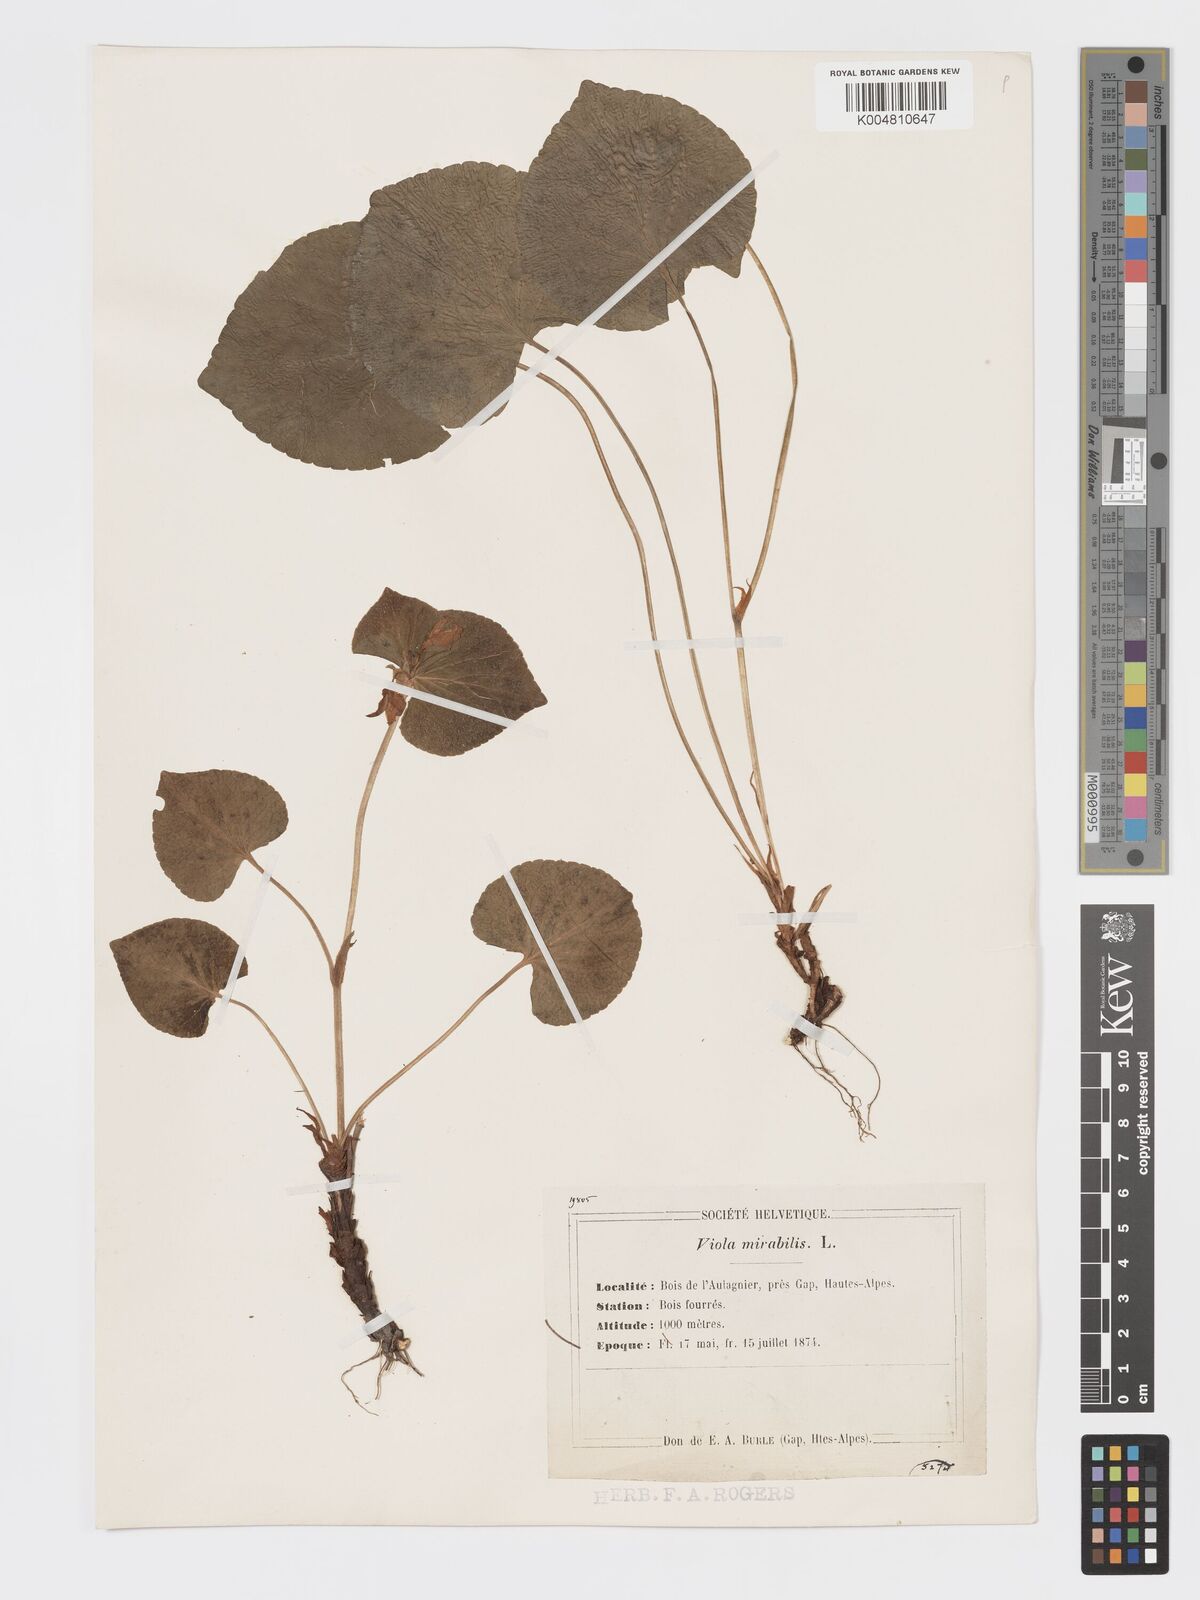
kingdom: Plantae
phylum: Tracheophyta
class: Magnoliopsida
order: Malpighiales
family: Violaceae
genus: Viola
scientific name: Viola mirabilis
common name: Wonder violet
